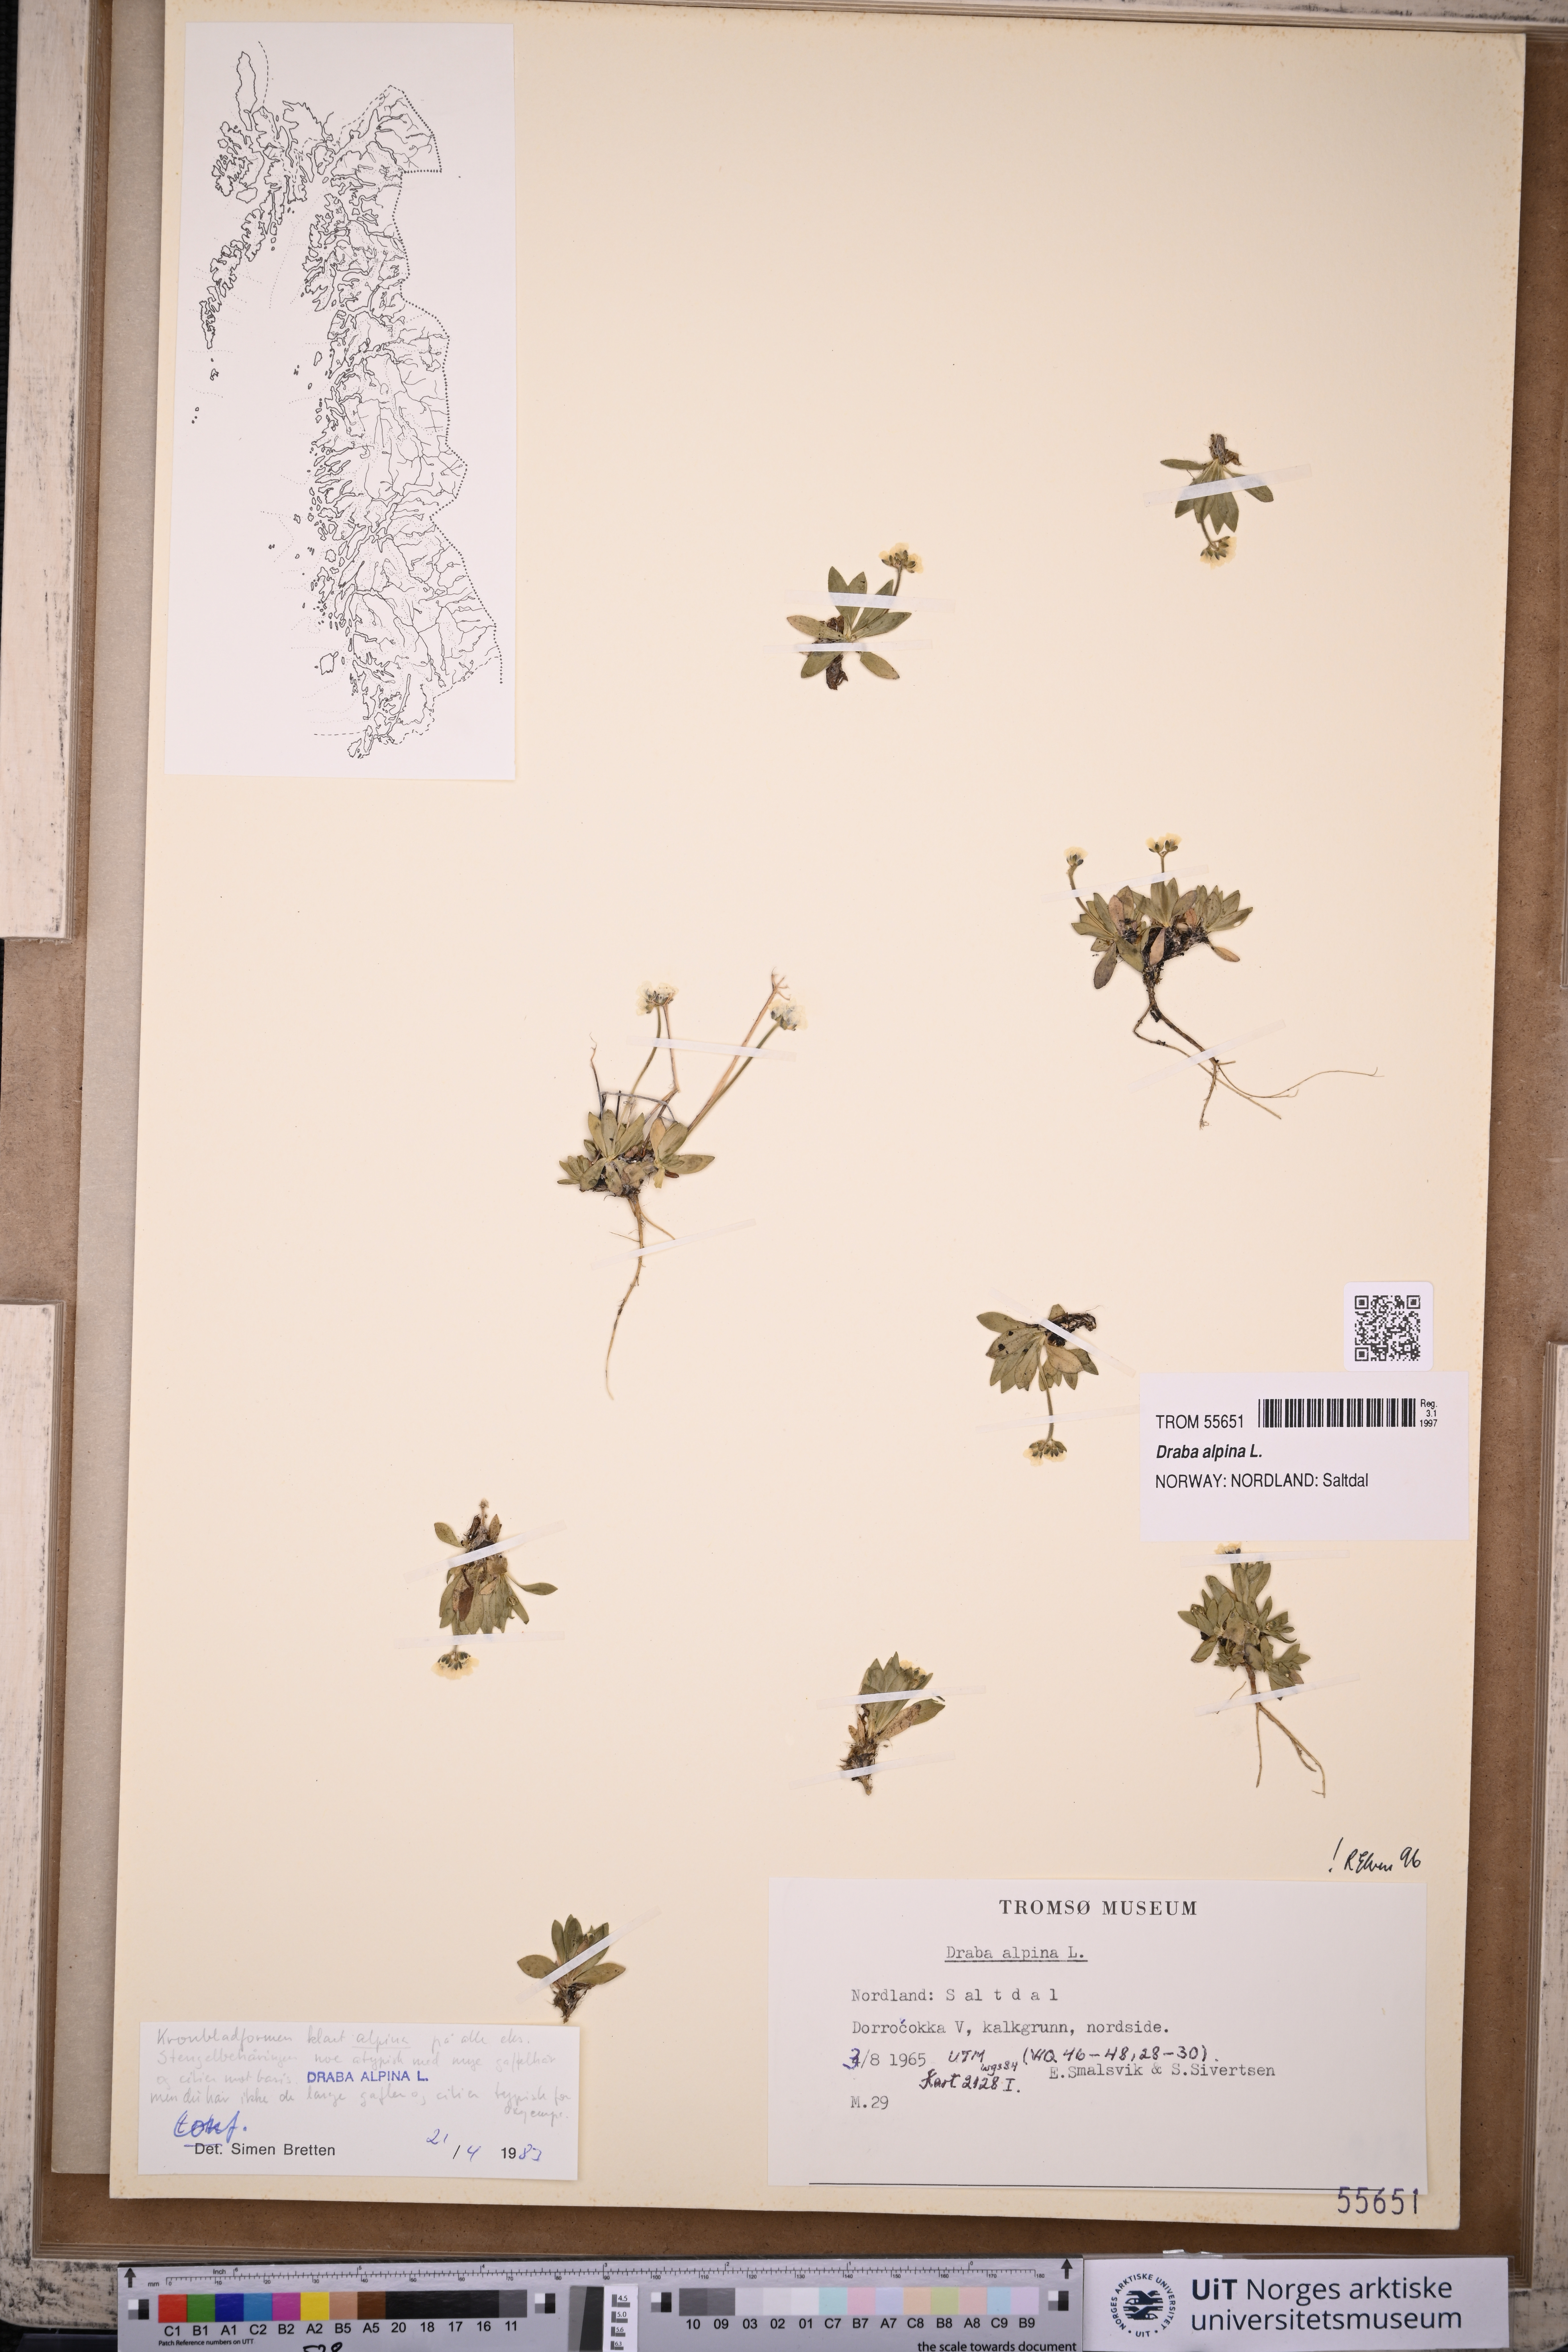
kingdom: Plantae
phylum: Tracheophyta
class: Magnoliopsida
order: Brassicales
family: Brassicaceae
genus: Draba
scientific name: Draba alpina
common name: Alpine draba
